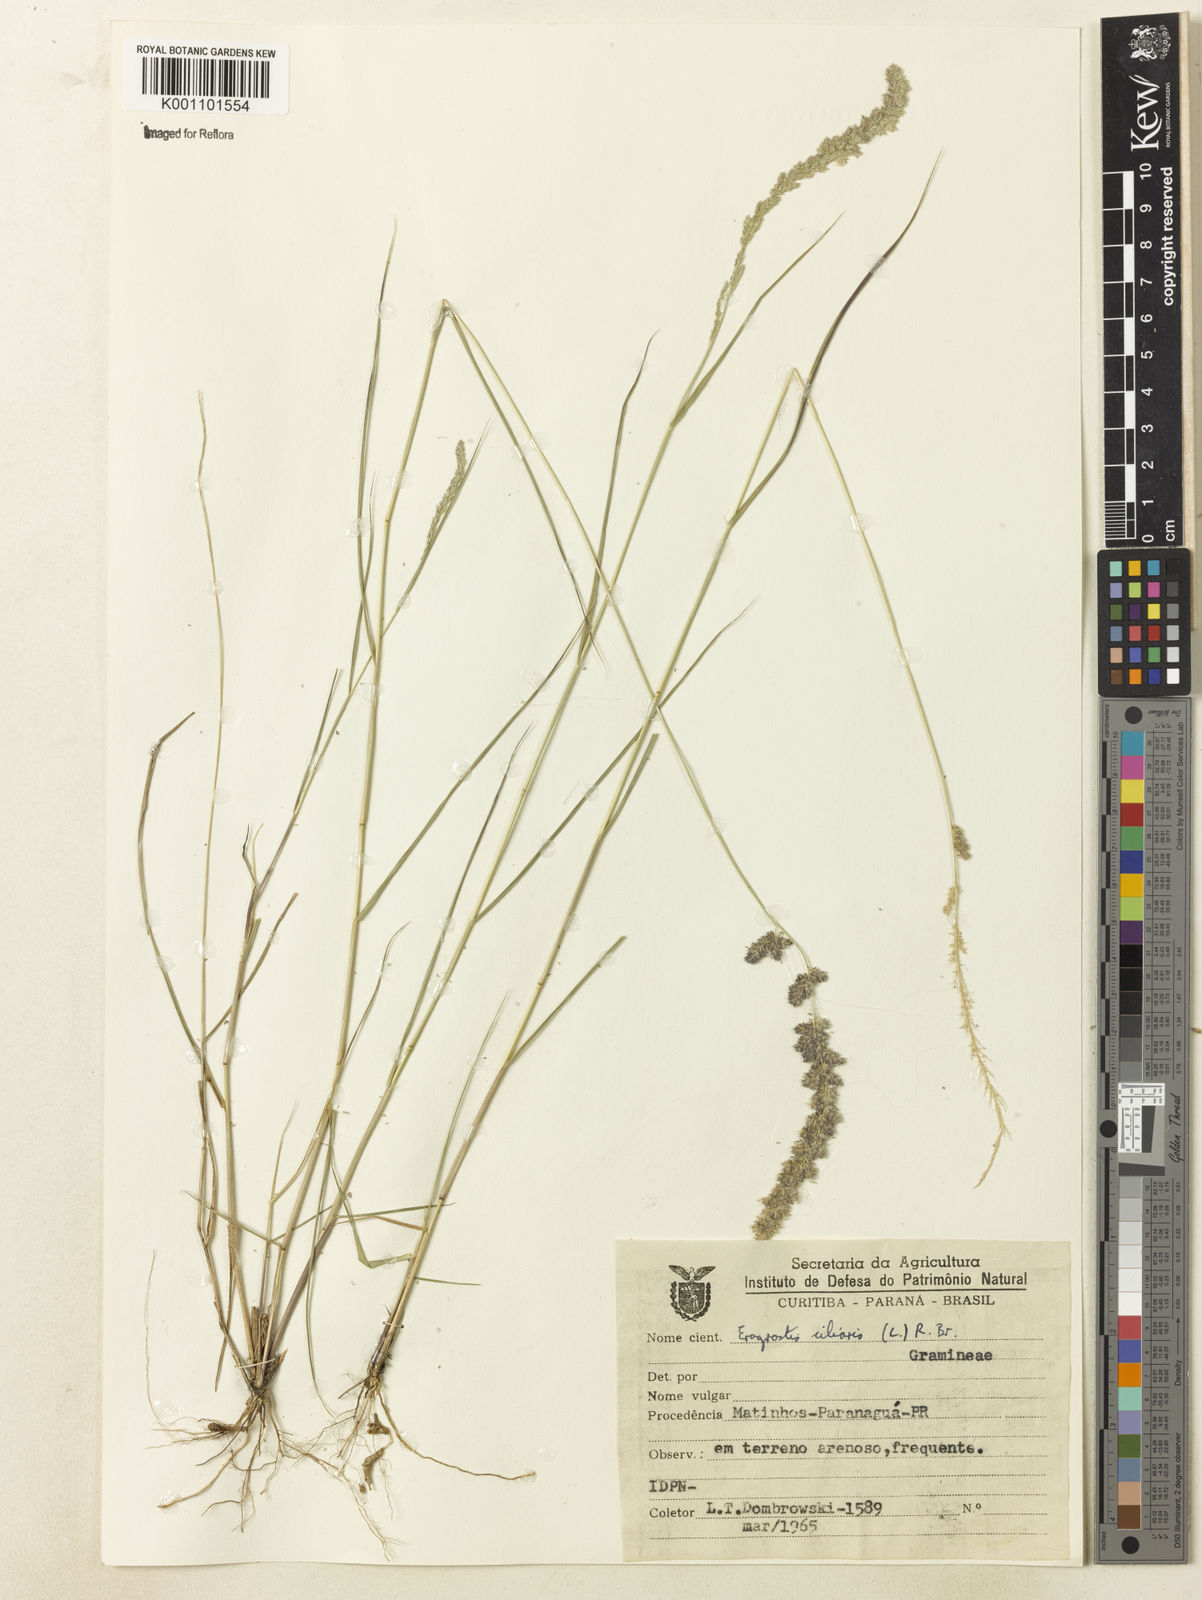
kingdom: Plantae
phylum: Tracheophyta
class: Liliopsida
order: Poales
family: Poaceae
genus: Eragrostis
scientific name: Eragrostis ciliaris
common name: Gophertail lovegrass
